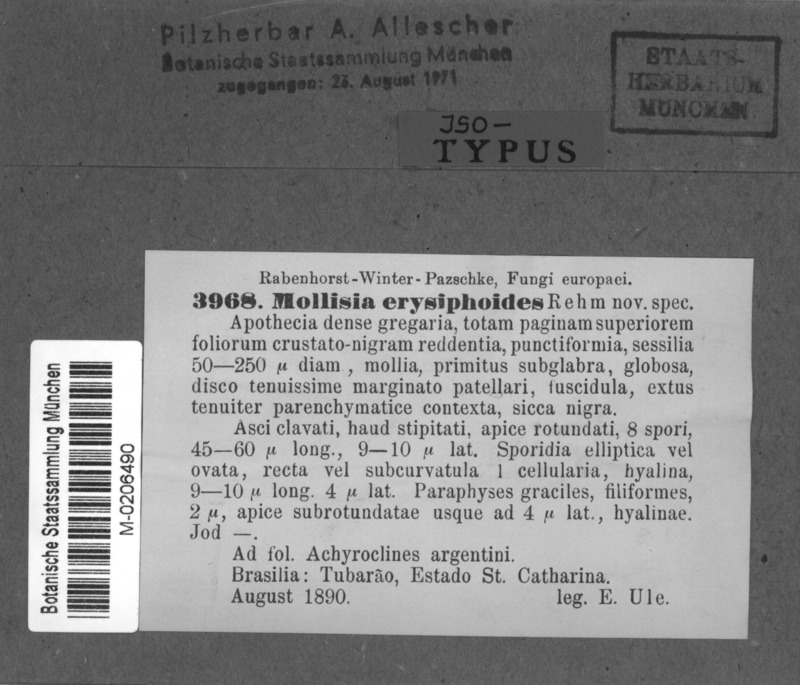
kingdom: Fungi
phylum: Ascomycota
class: Leotiomycetes
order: Helotiales
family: Mollisiaceae
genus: Mollisia
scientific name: Mollisia erysiphoides
